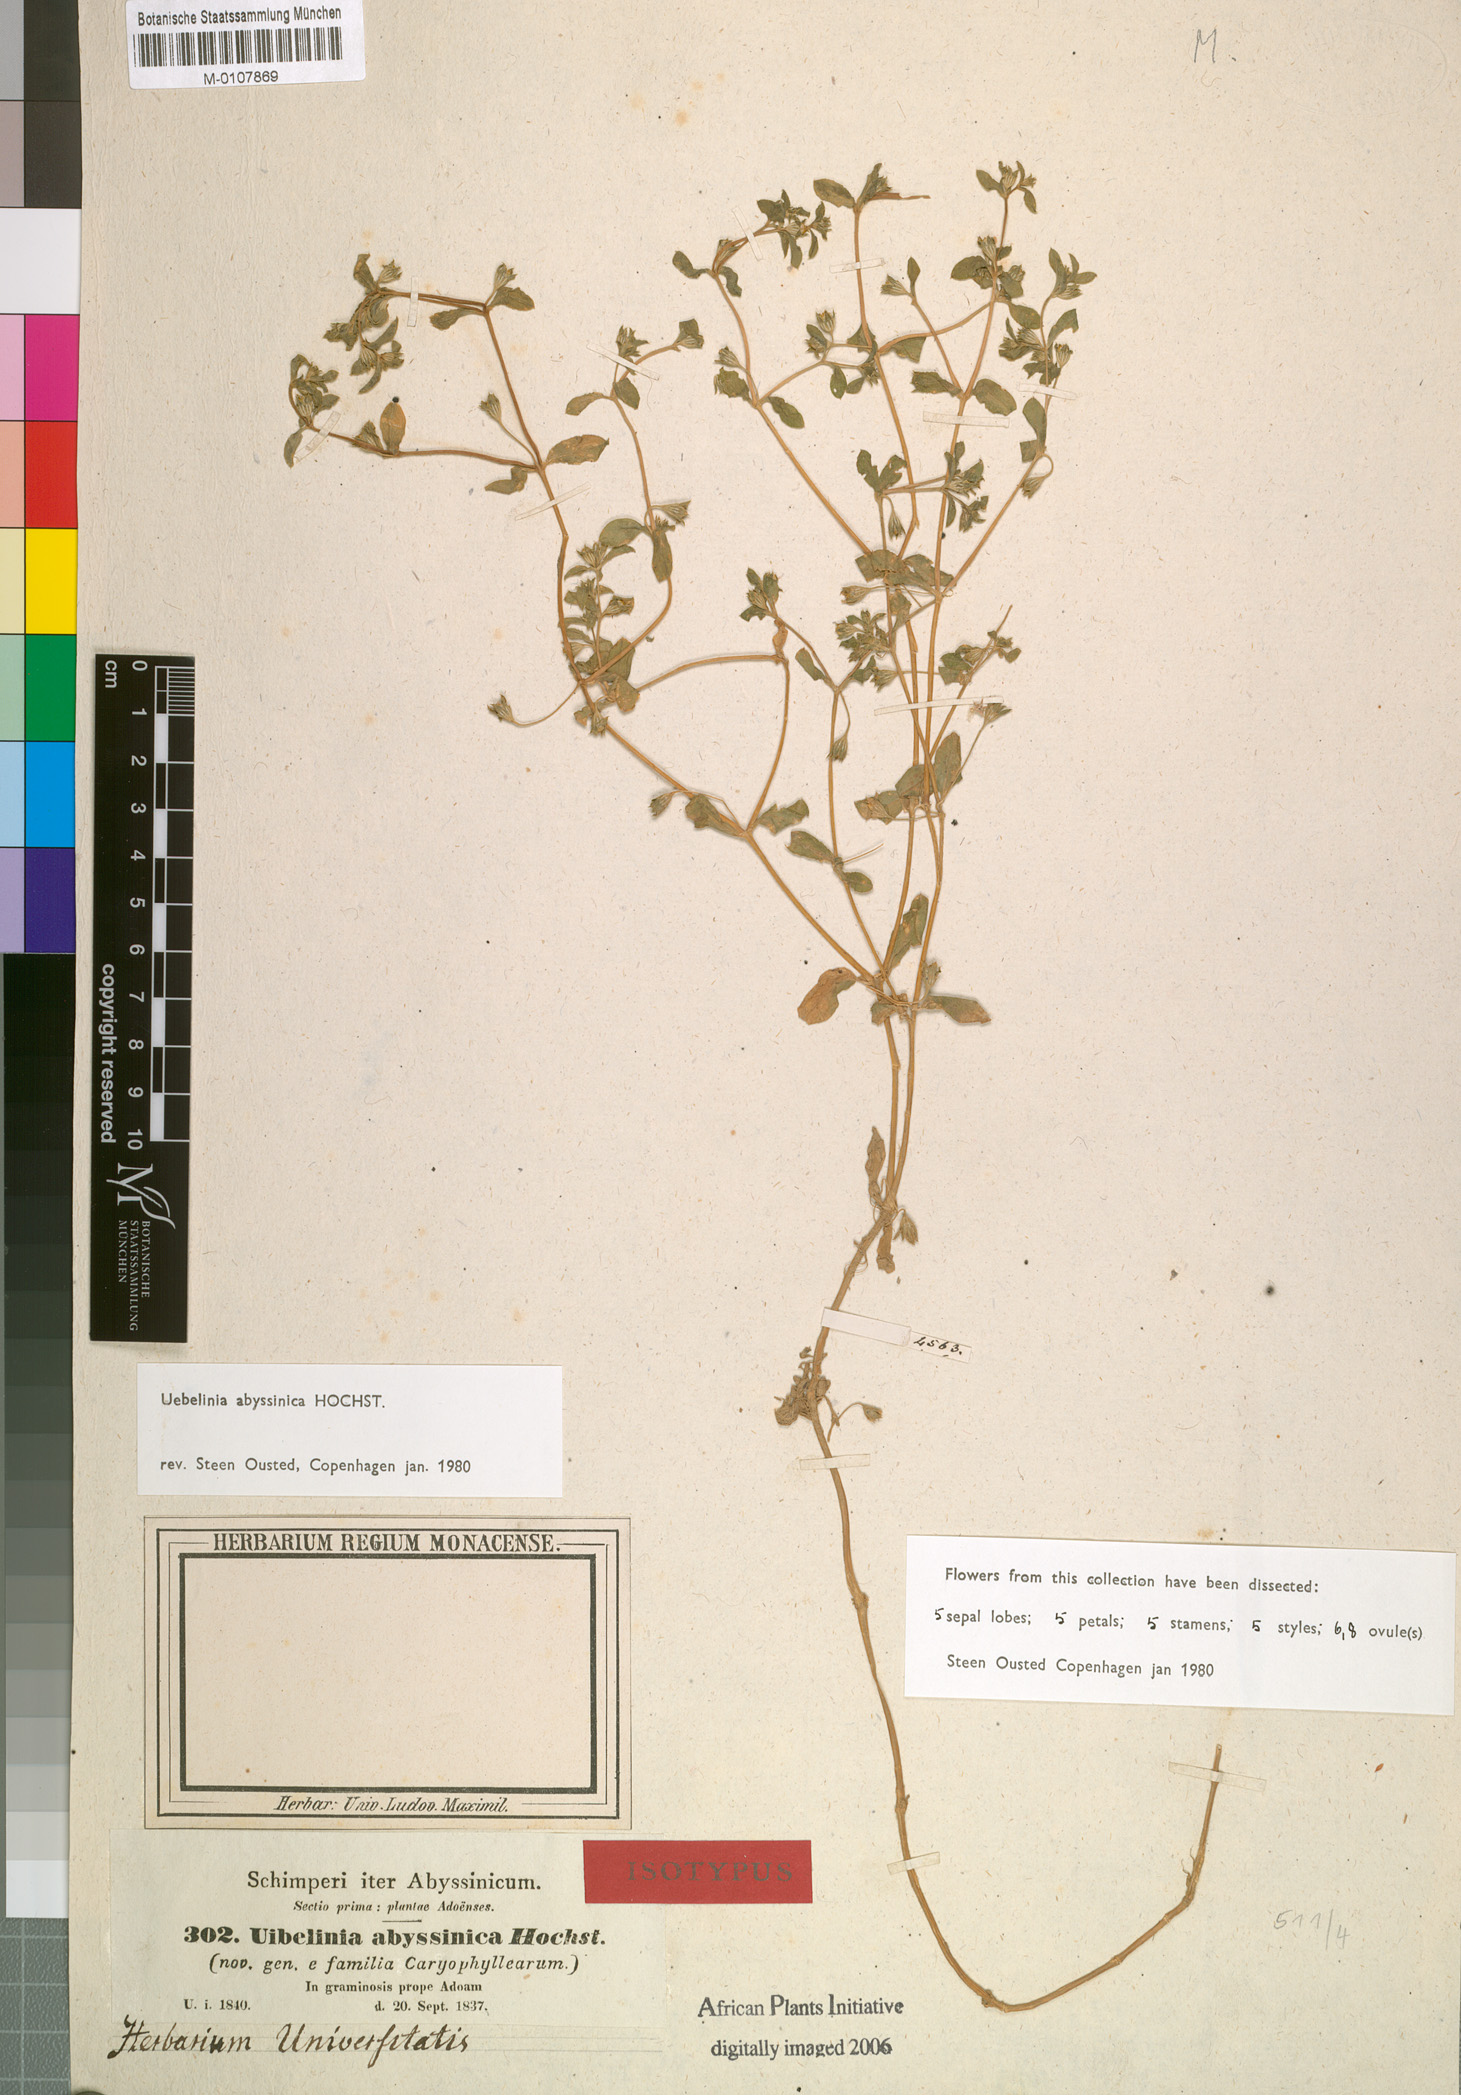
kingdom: Plantae
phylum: Tracheophyta
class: Magnoliopsida
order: Caryophyllales
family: Caryophyllaceae
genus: Silene
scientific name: Silene abyssinica
